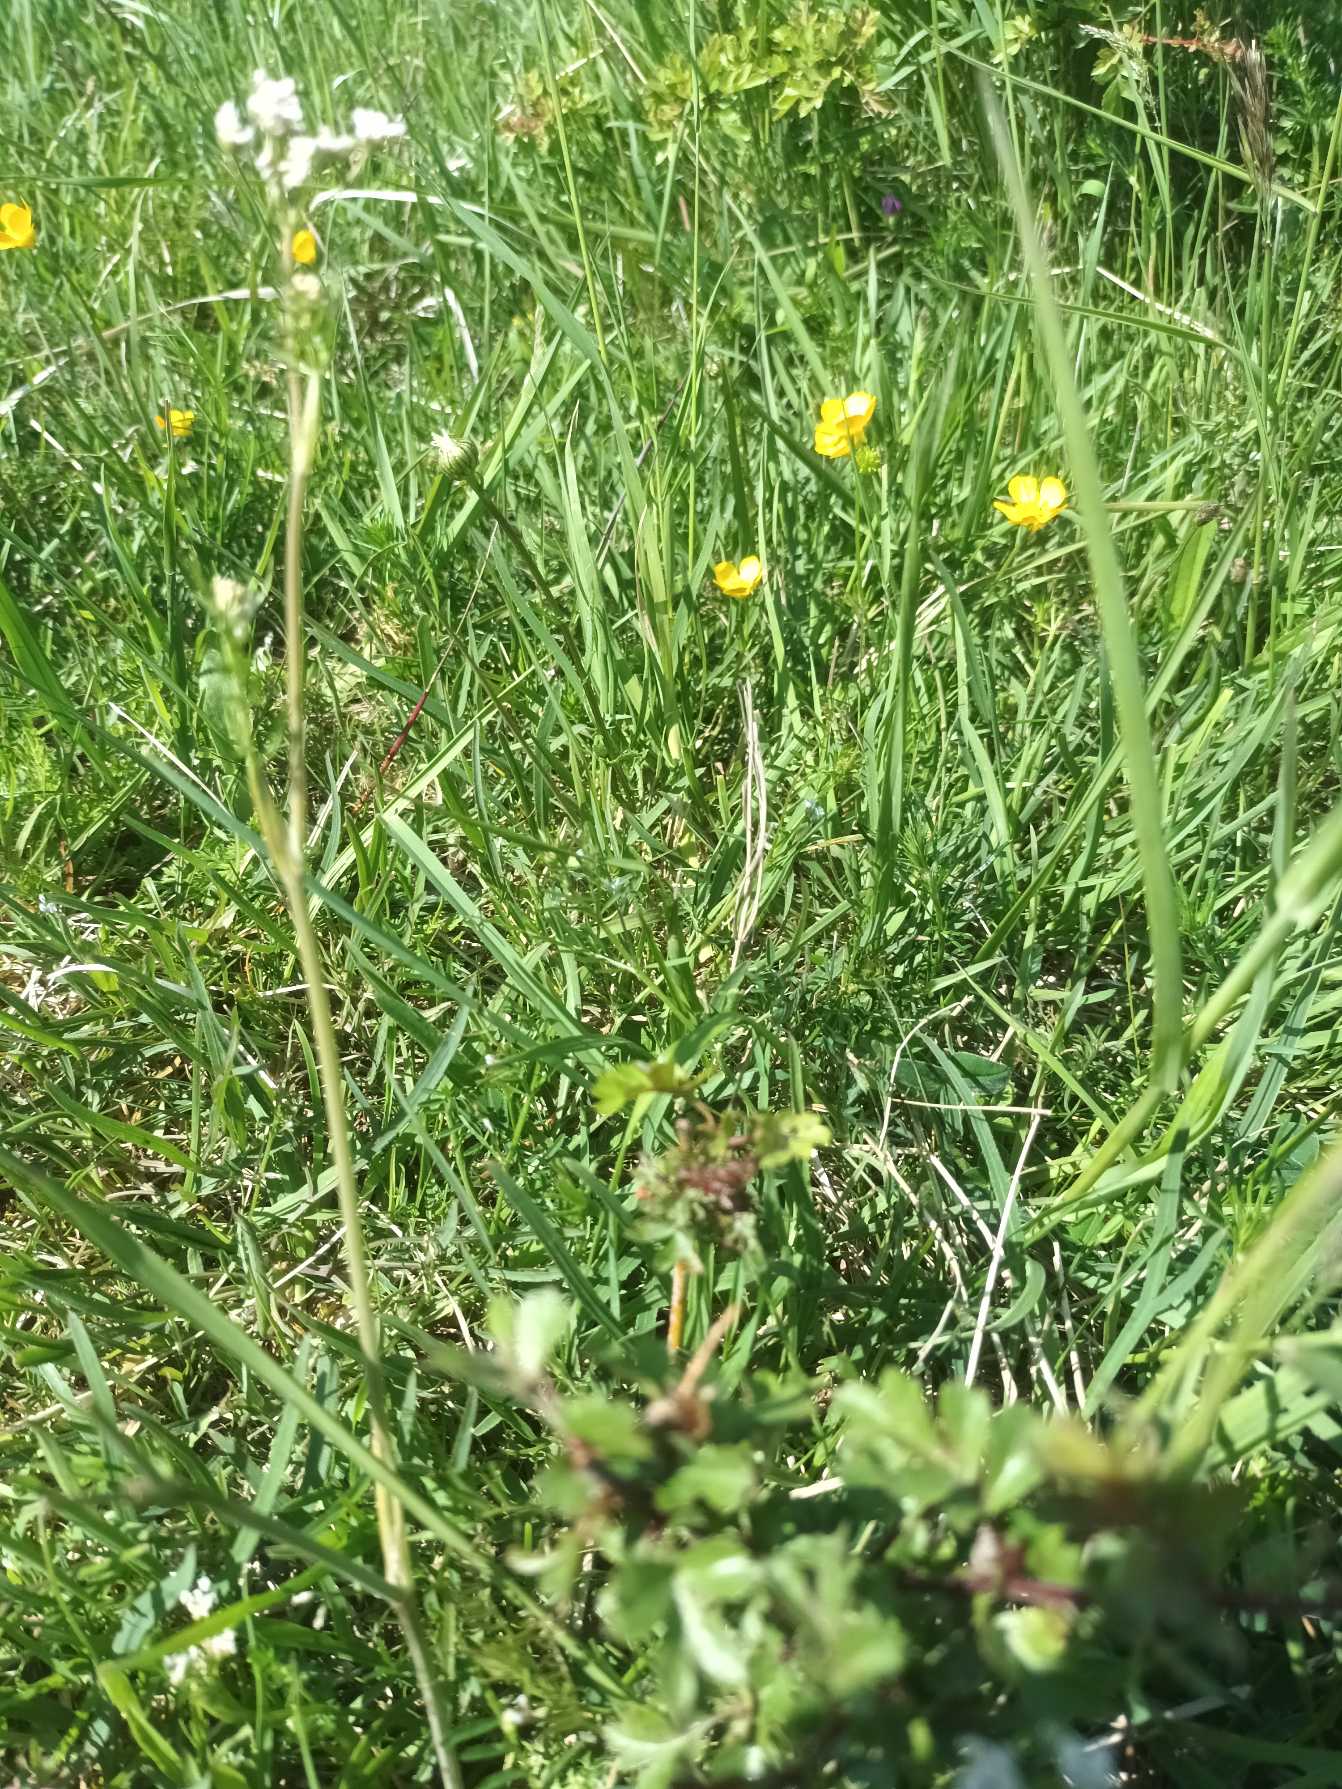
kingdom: Plantae
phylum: Tracheophyta
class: Magnoliopsida
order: Apiales
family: Apiaceae
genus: Carum
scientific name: Carum carvi
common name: Kommen
